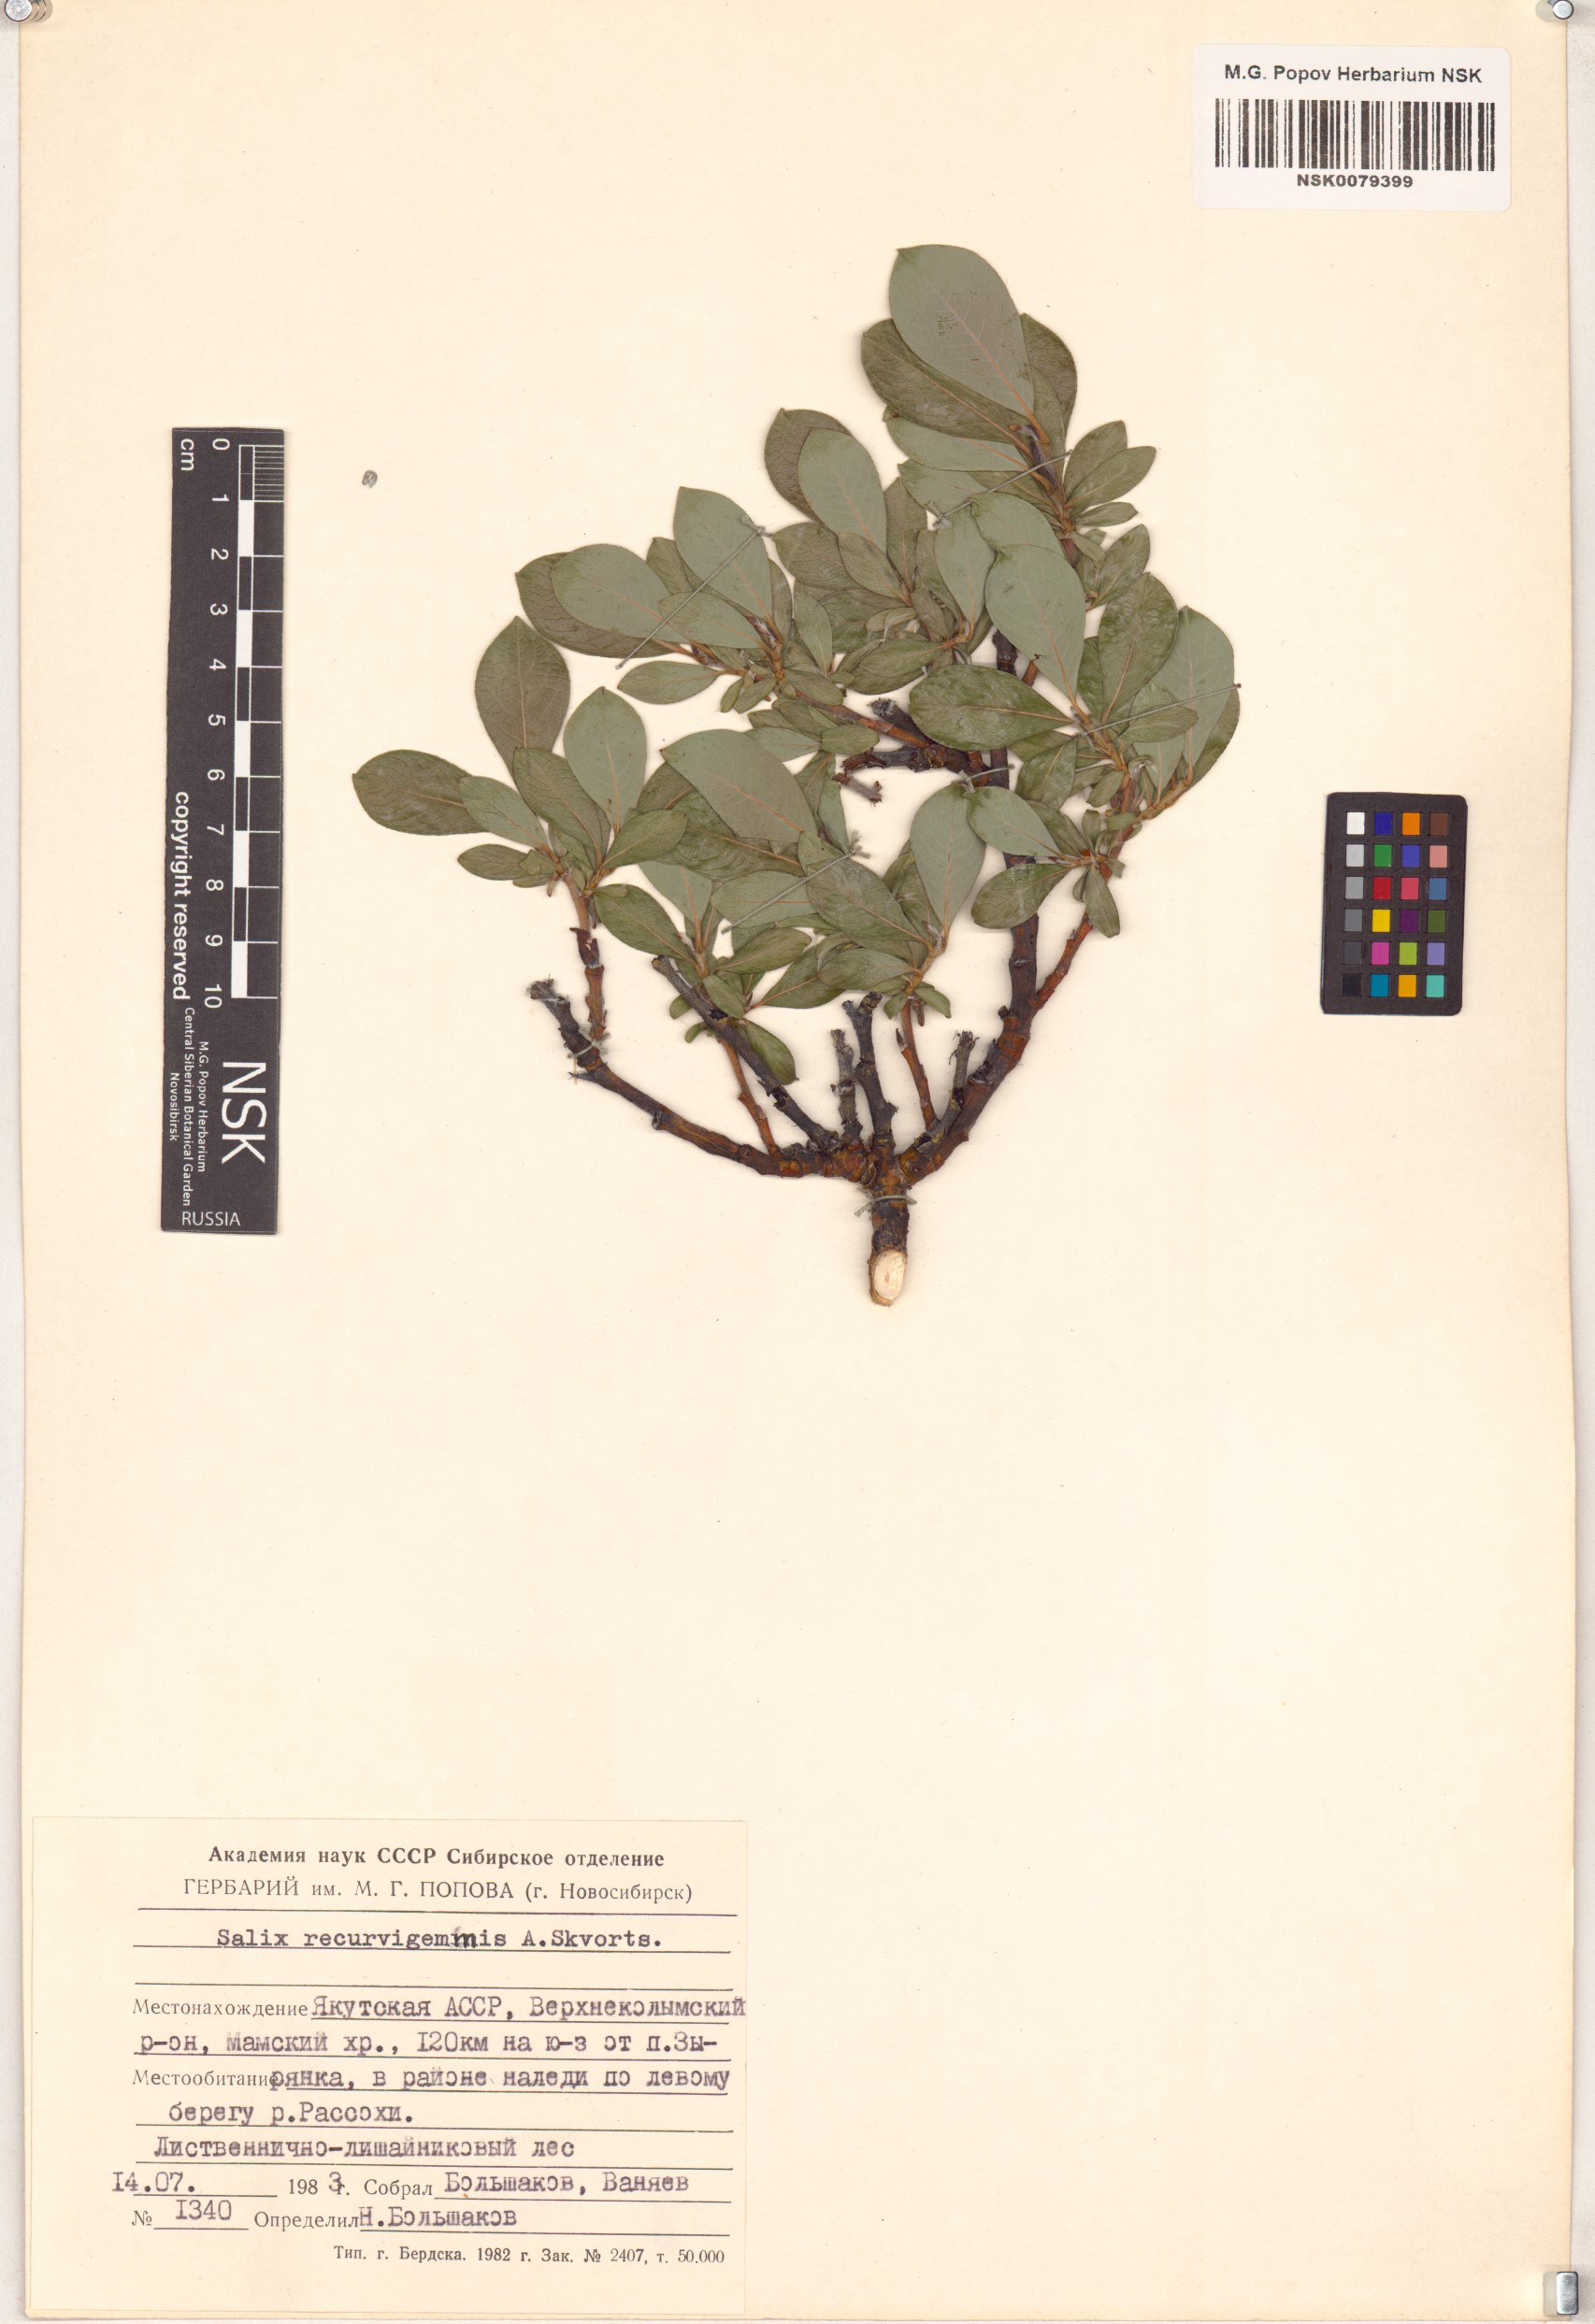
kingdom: Plantae
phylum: Tracheophyta
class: Magnoliopsida
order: Malpighiales
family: Salicaceae
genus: Salix
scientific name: Salix recurvigemmata
